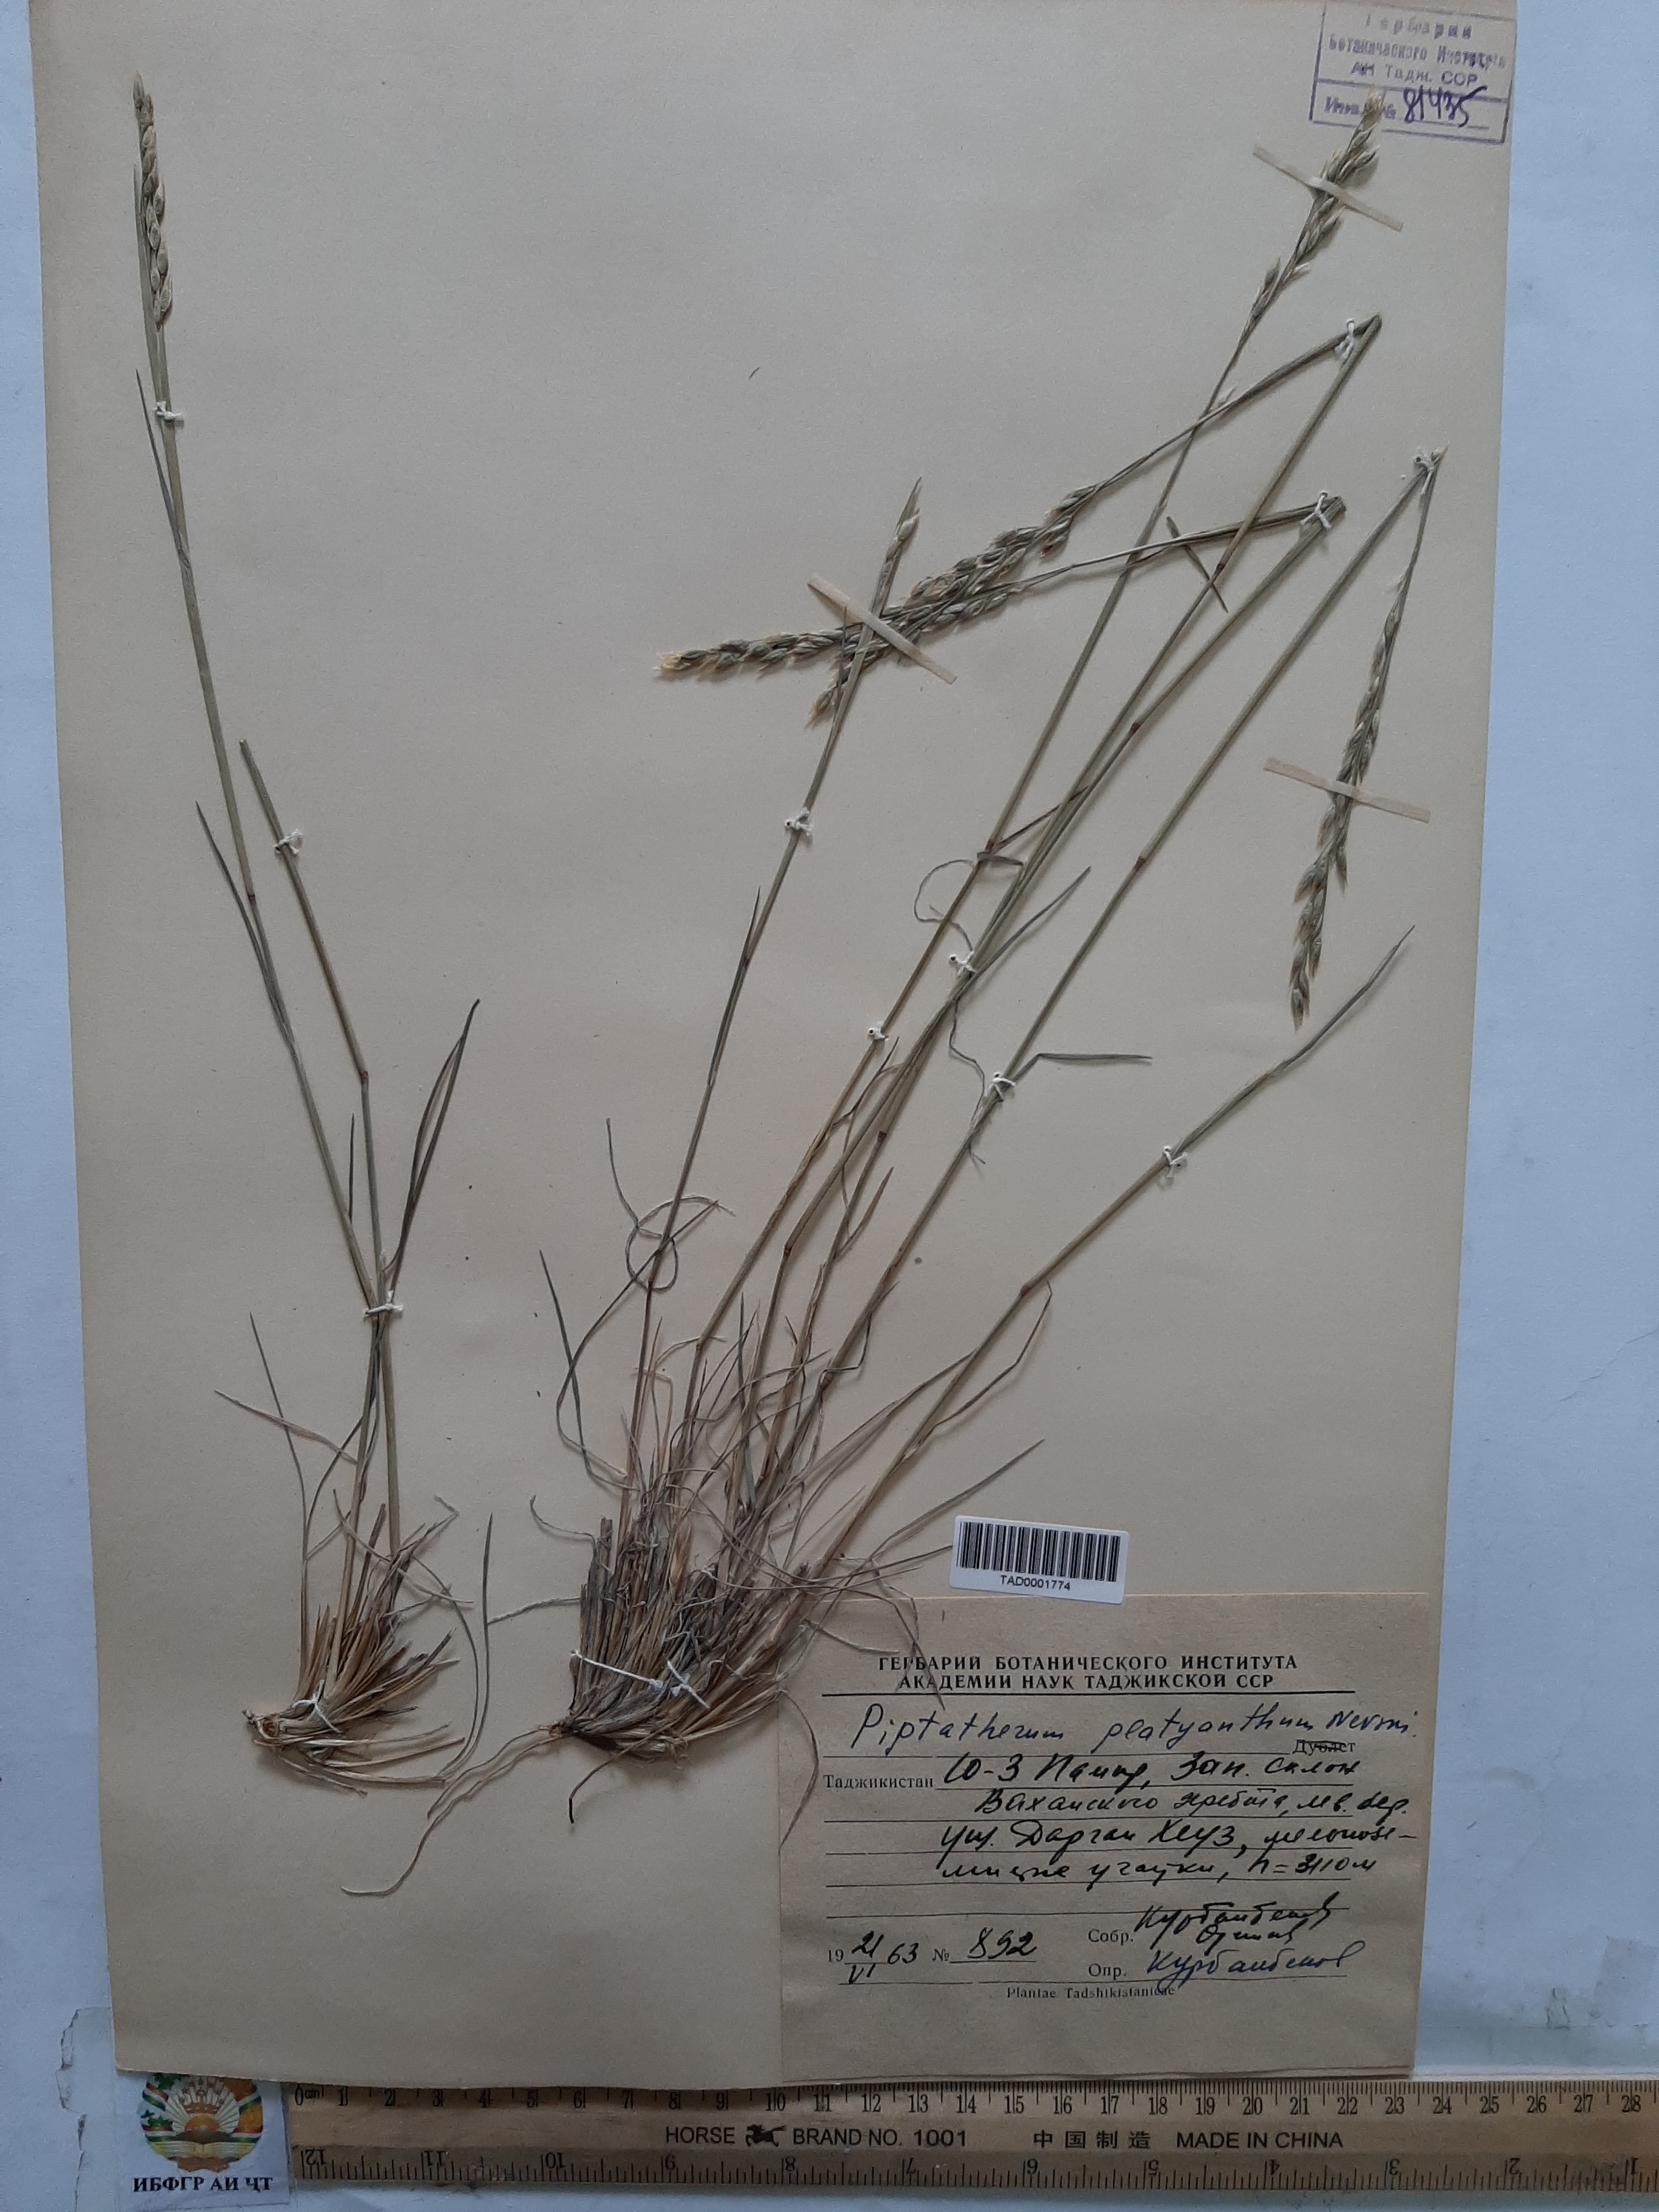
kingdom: Plantae
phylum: Tracheophyta
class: Liliopsida
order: Poales
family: Poaceae
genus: Piptatherum
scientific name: Piptatherum platyanthum
